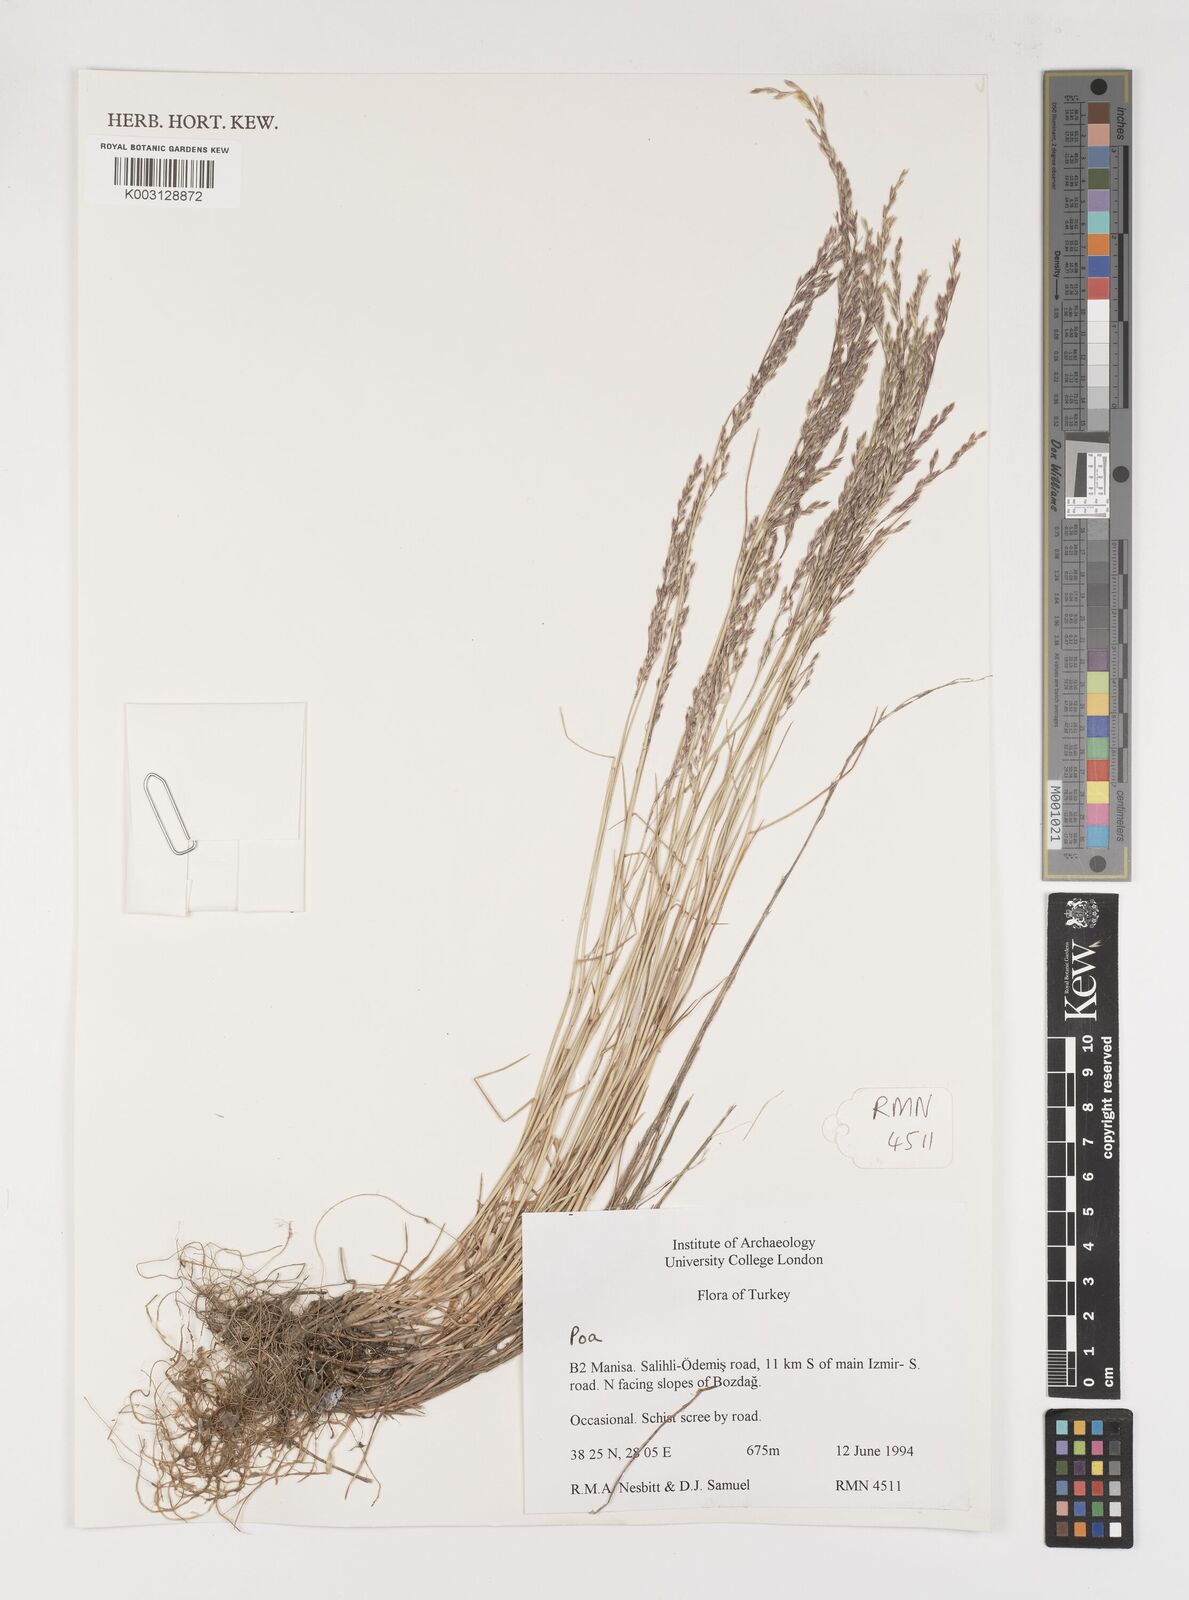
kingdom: Plantae
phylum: Tracheophyta
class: Liliopsida
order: Poales
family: Poaceae
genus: Poa
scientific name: Poa
